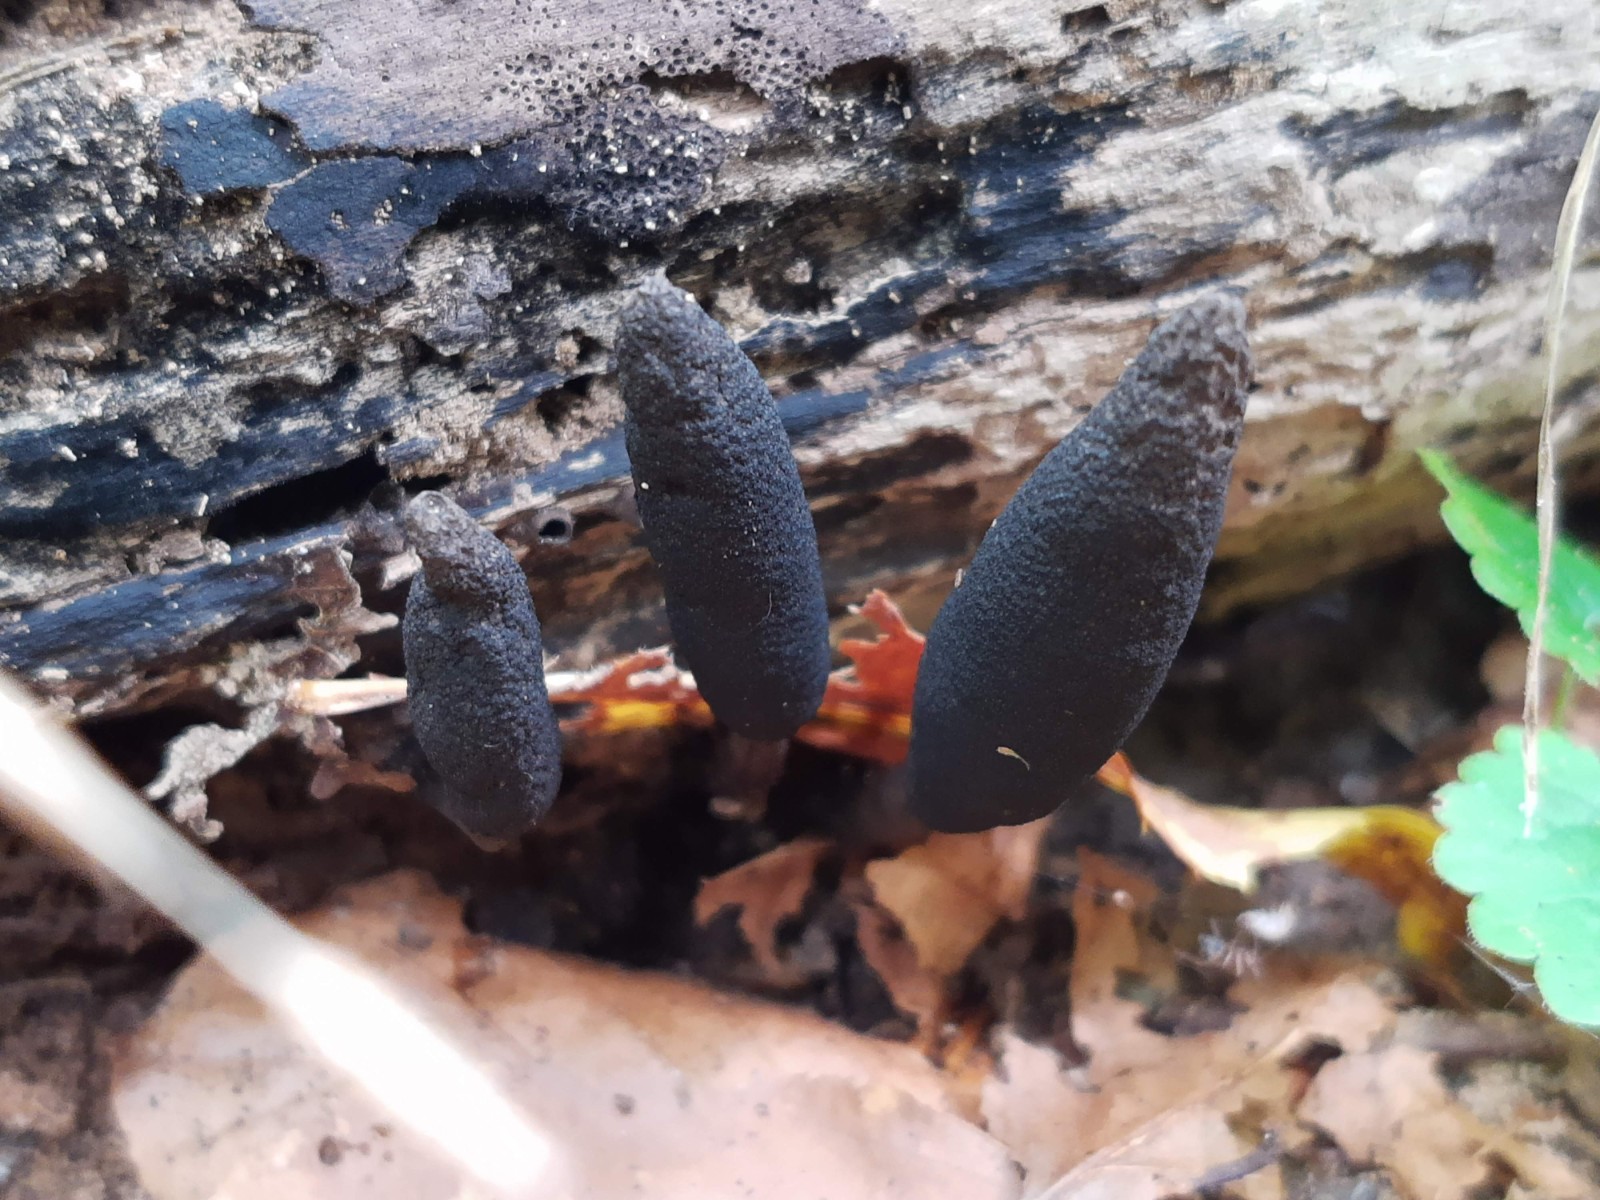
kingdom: Fungi
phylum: Ascomycota
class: Sordariomycetes
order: Xylariales
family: Xylariaceae
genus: Xylaria
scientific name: Xylaria longipes
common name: slank stødsvamp
